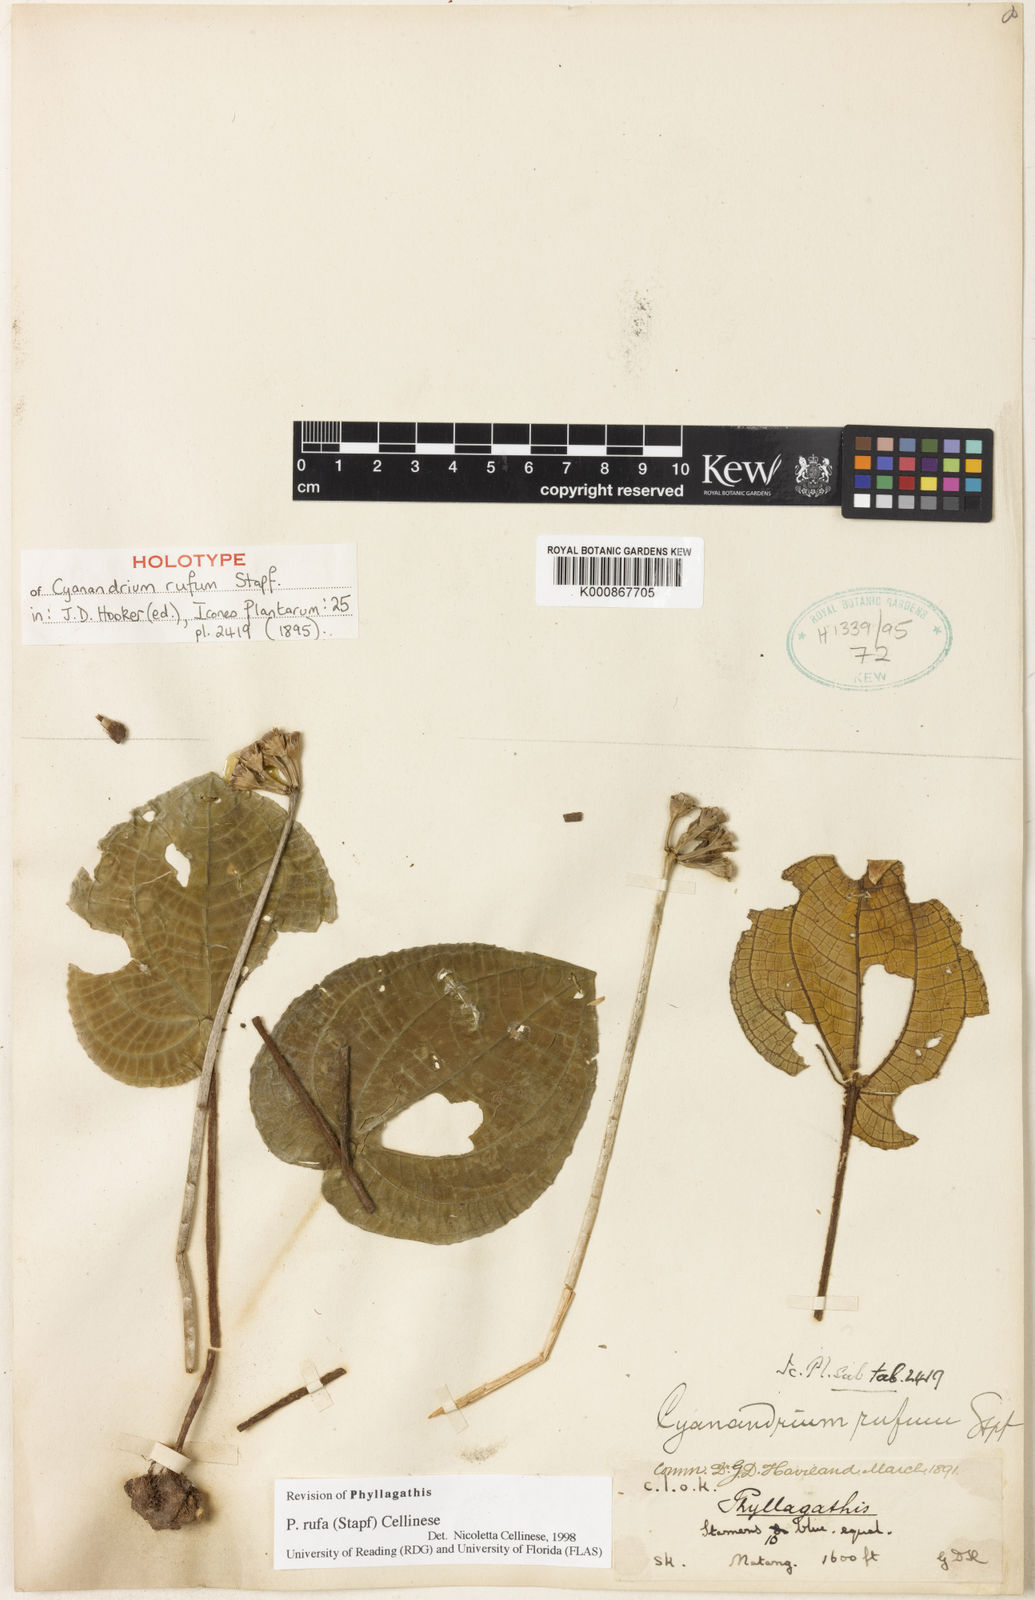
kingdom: Plantae
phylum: Tracheophyta
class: Magnoliopsida
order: Myrtales
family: Melastomataceae
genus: Cyanandrium
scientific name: Cyanandrium rufum
